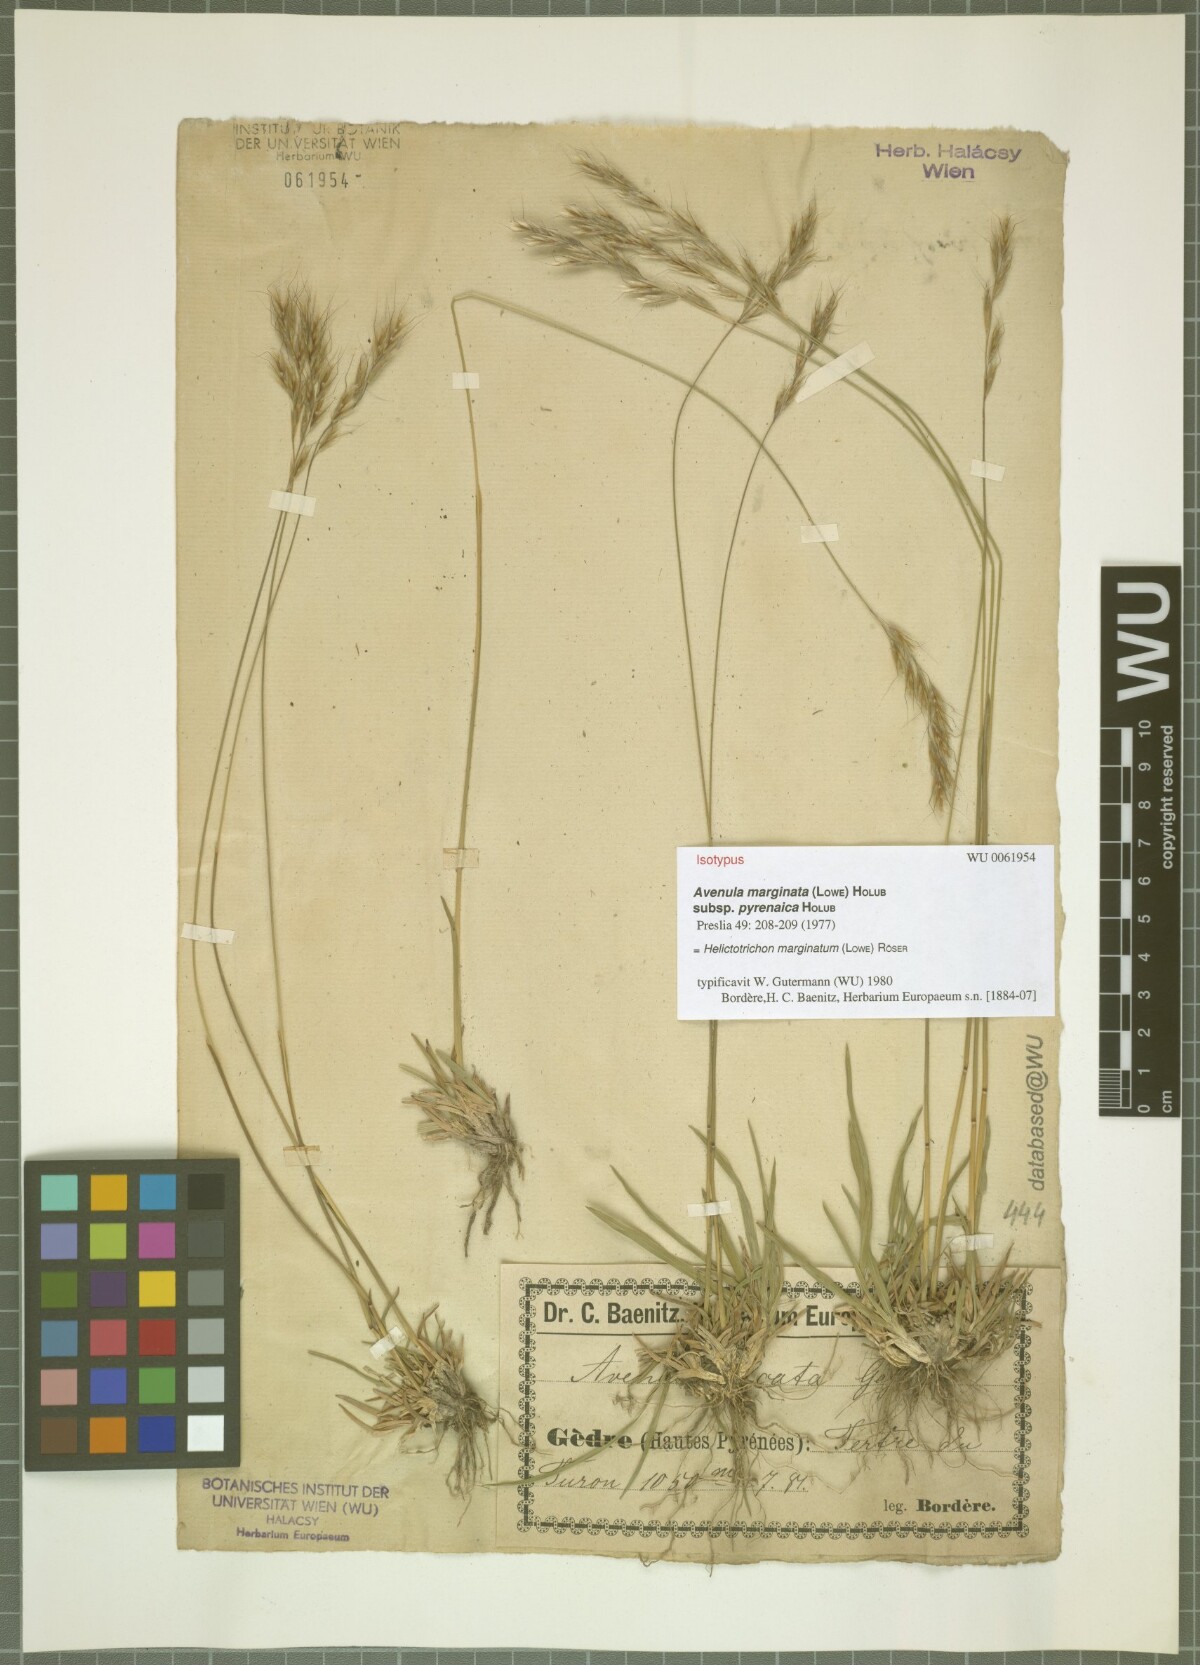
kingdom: Plantae
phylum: Tracheophyta
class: Liliopsida
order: Poales
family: Poaceae
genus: Helictochloa
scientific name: Helictochloa marginata
